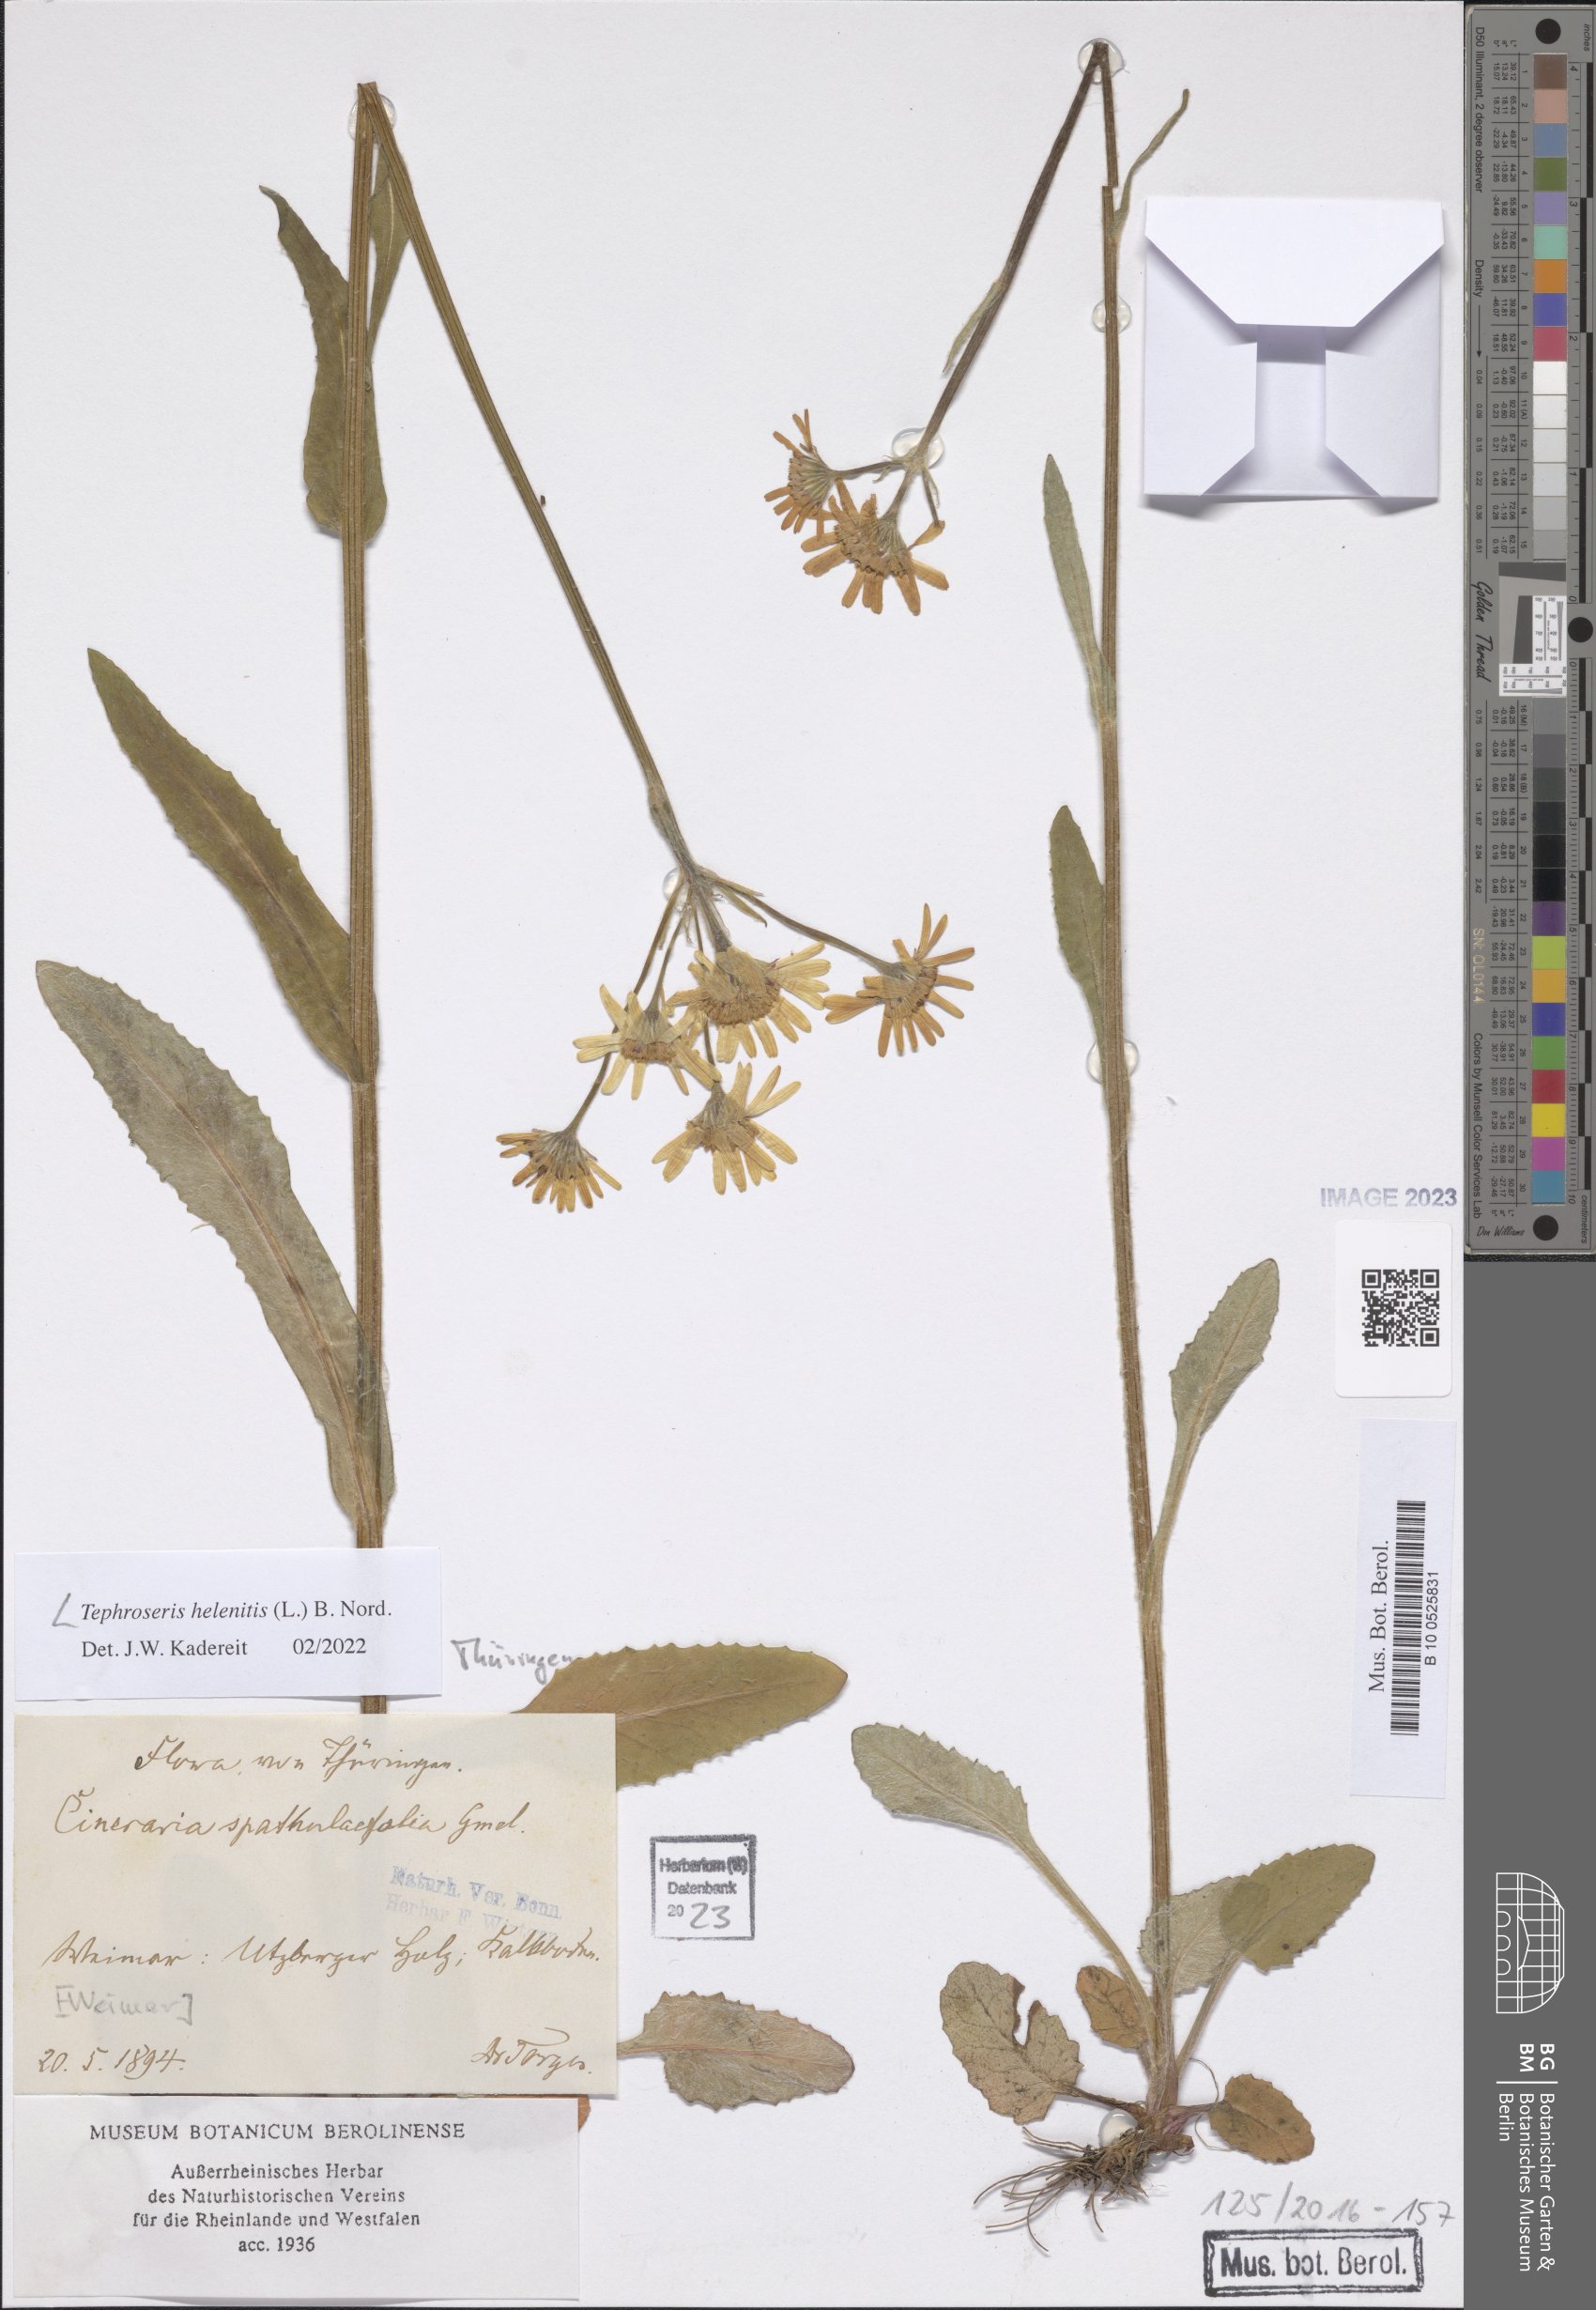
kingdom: Plantae
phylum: Tracheophyta
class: Magnoliopsida
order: Asterales
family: Asteraceae
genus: Tephroseris
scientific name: Tephroseris helenitis
